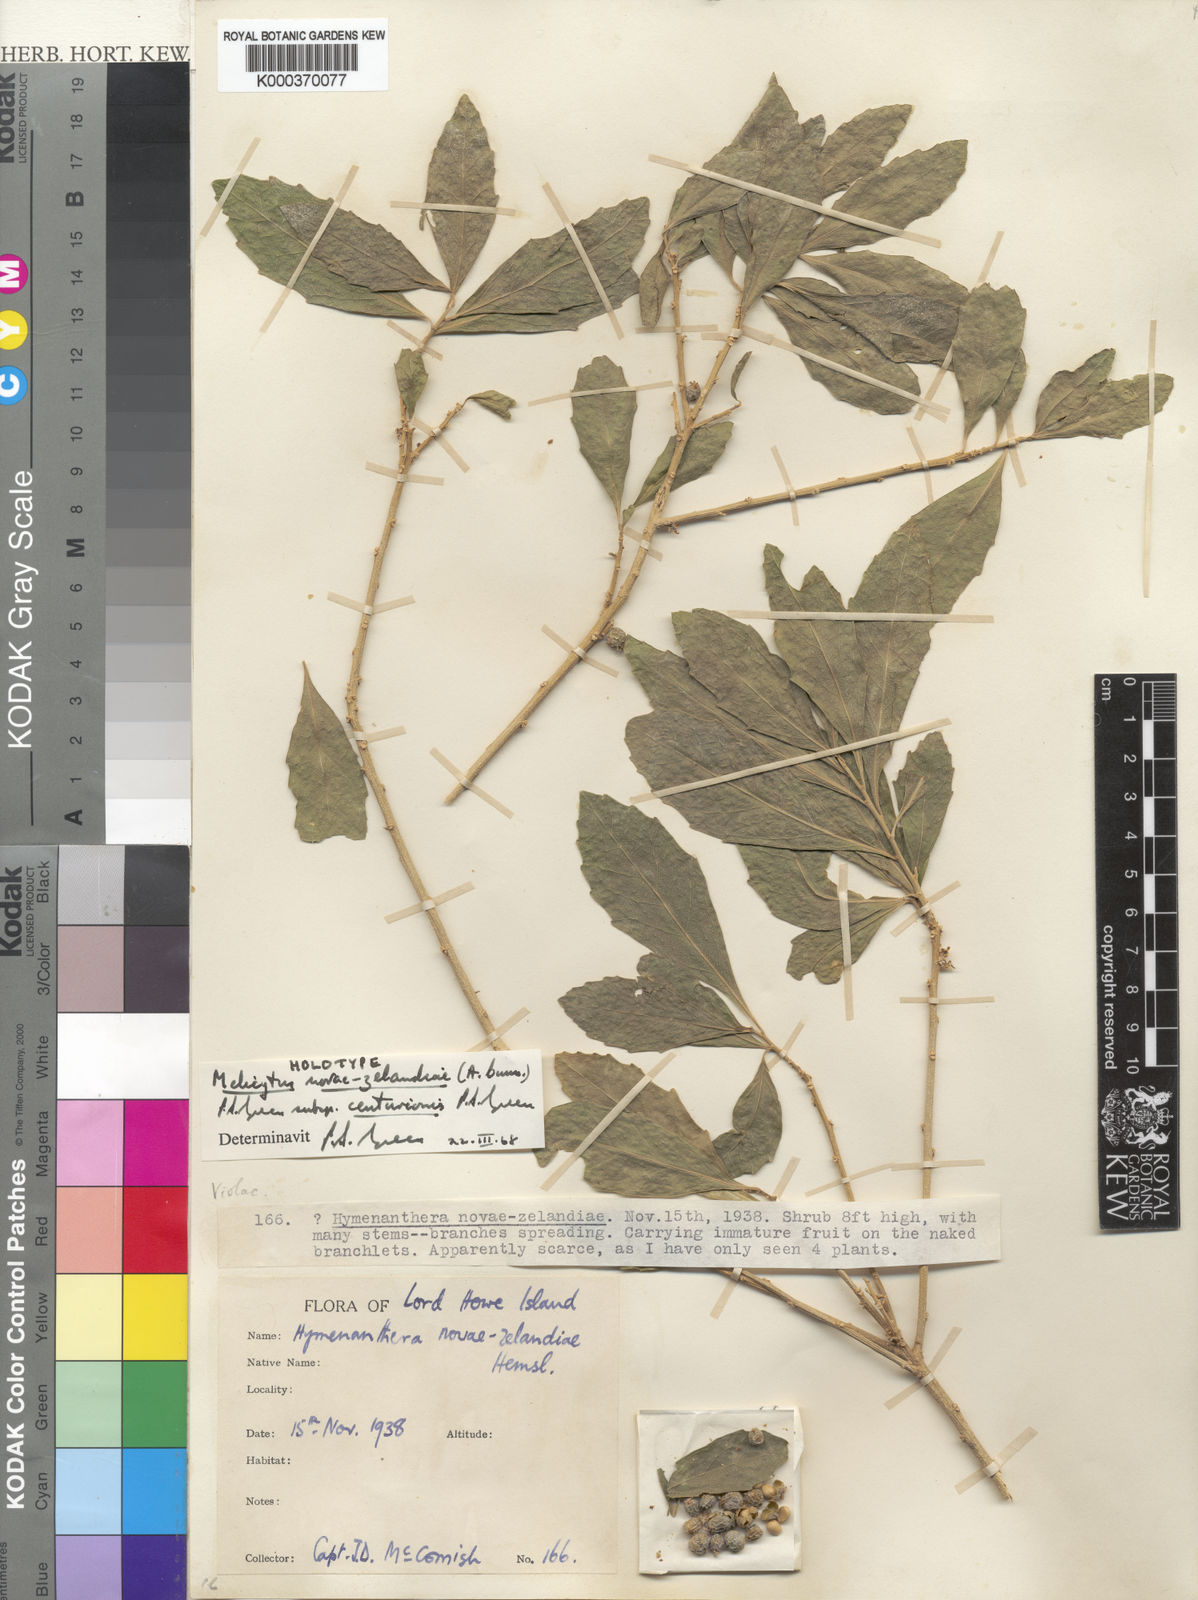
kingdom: Plantae
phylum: Tracheophyta
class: Magnoliopsida
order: Malpighiales
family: Violaceae
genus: Melicytus
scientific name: Melicytus novae-zelandiae
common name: Coastal mahoe
